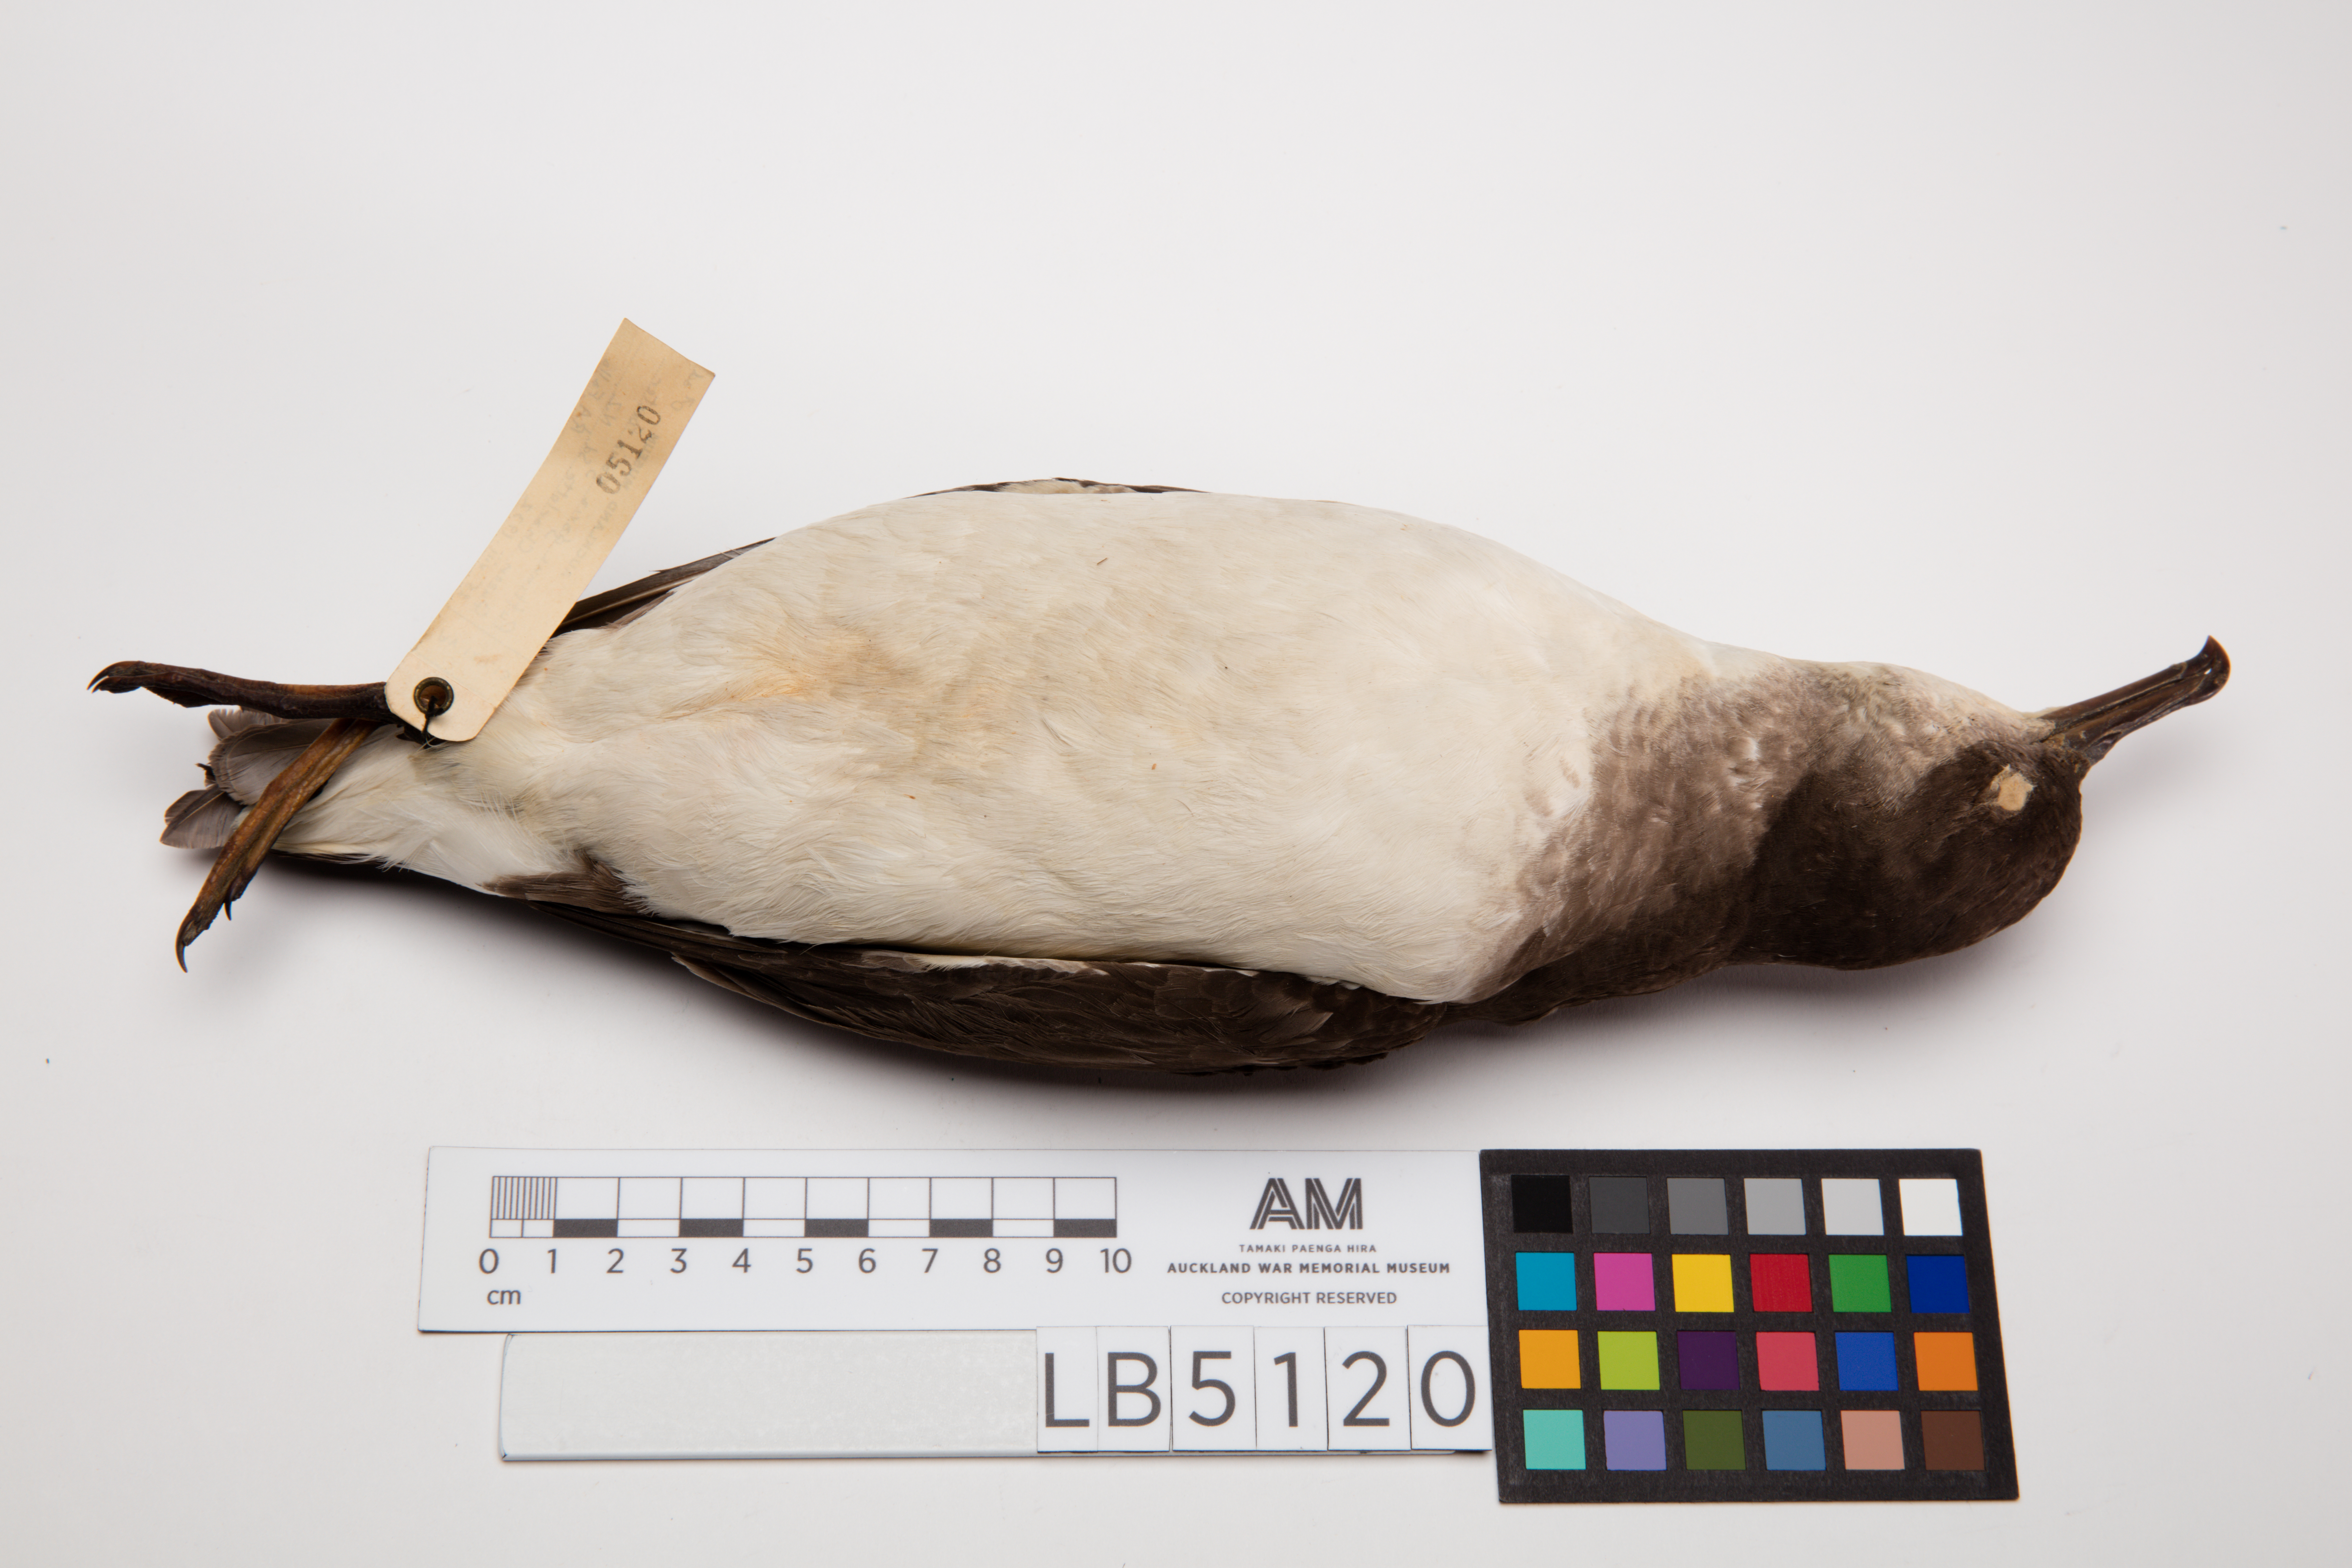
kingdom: Animalia
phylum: Chordata
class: Aves
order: Procellariiformes
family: Procellariidae
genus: Ardenna
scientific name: Ardenna
